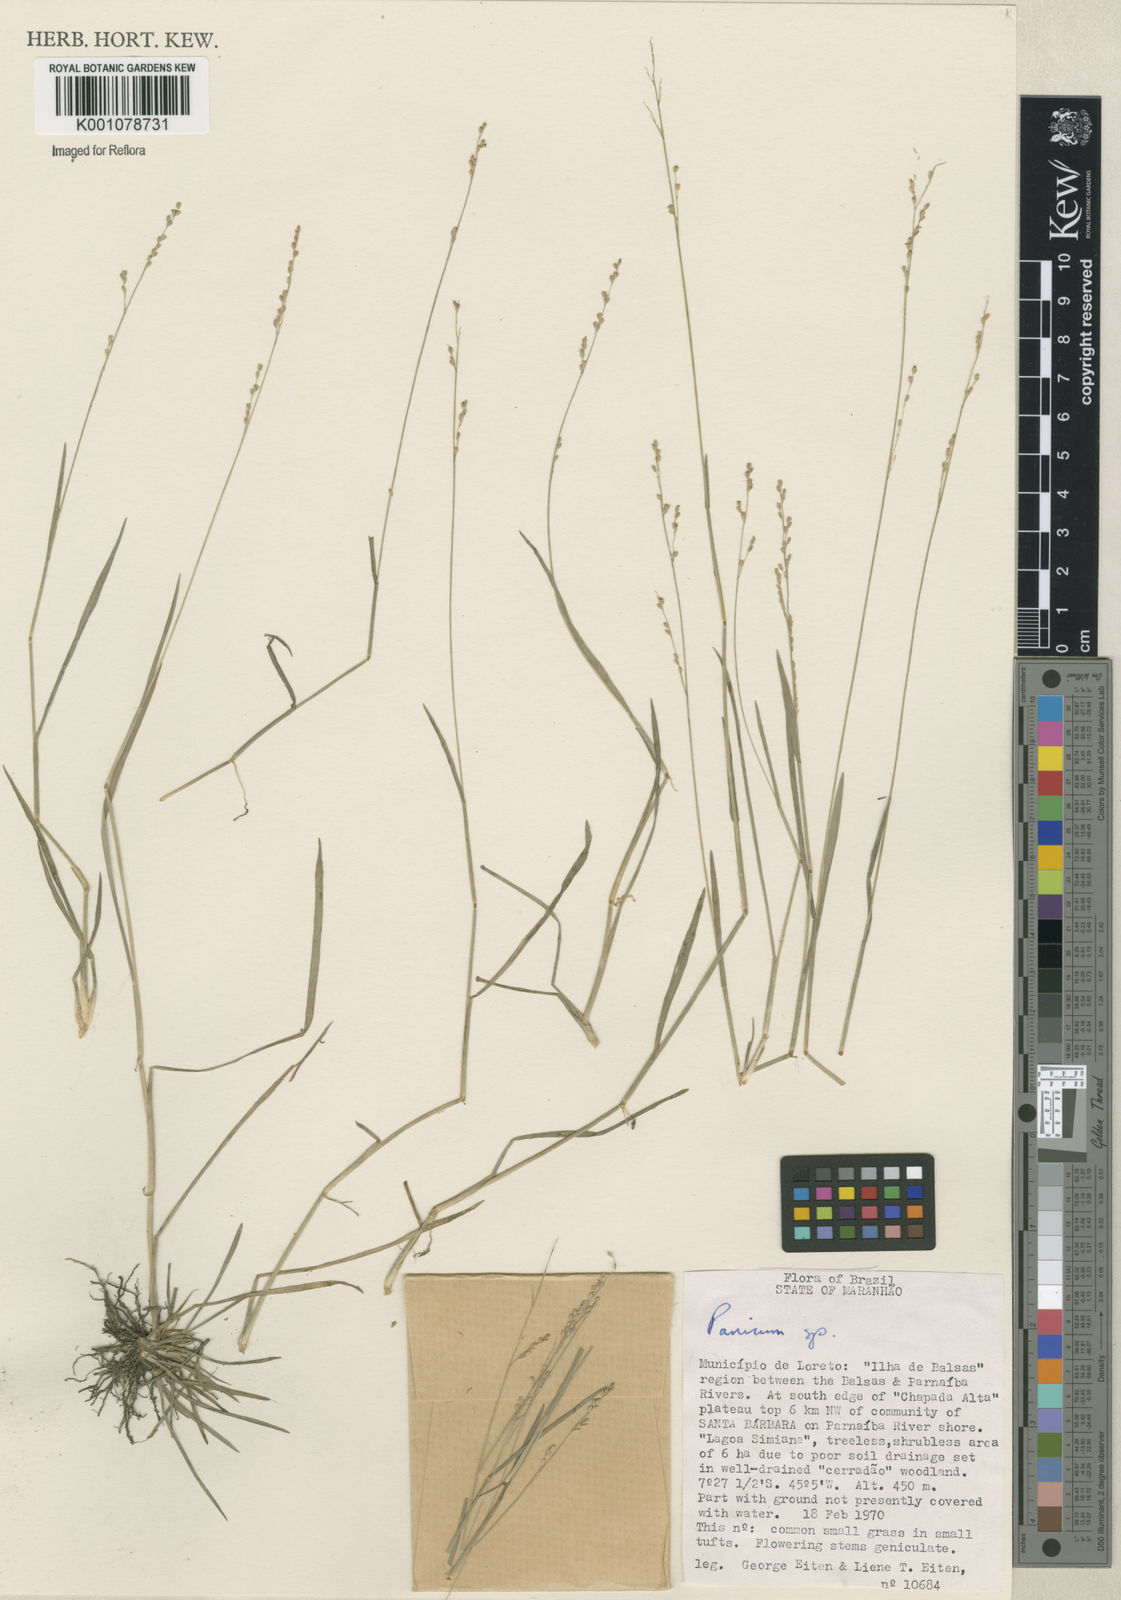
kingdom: Plantae
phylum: Tracheophyta
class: Liliopsida
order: Poales
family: Poaceae
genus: Panicum
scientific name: Panicum
